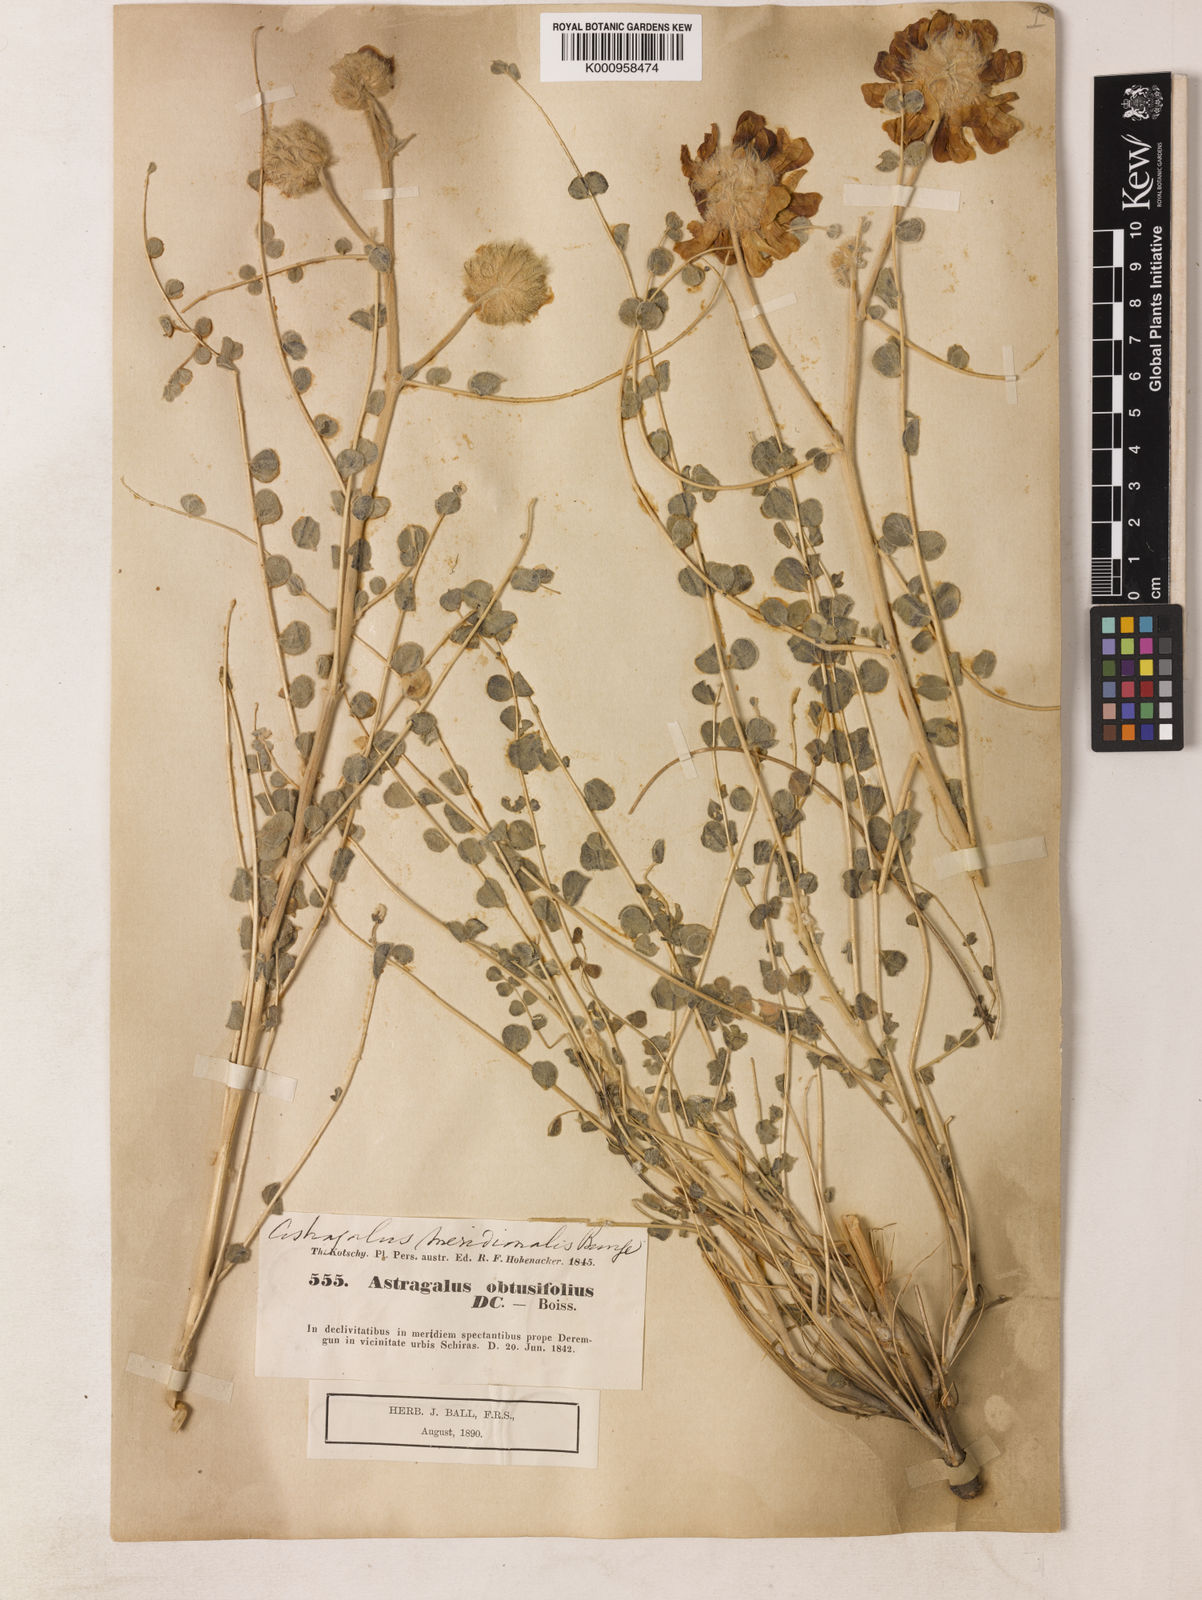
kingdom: Plantae
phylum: Tracheophyta
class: Magnoliopsida
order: Fabales
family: Fabaceae
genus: Astragalus
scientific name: Astragalus obtusifolius
